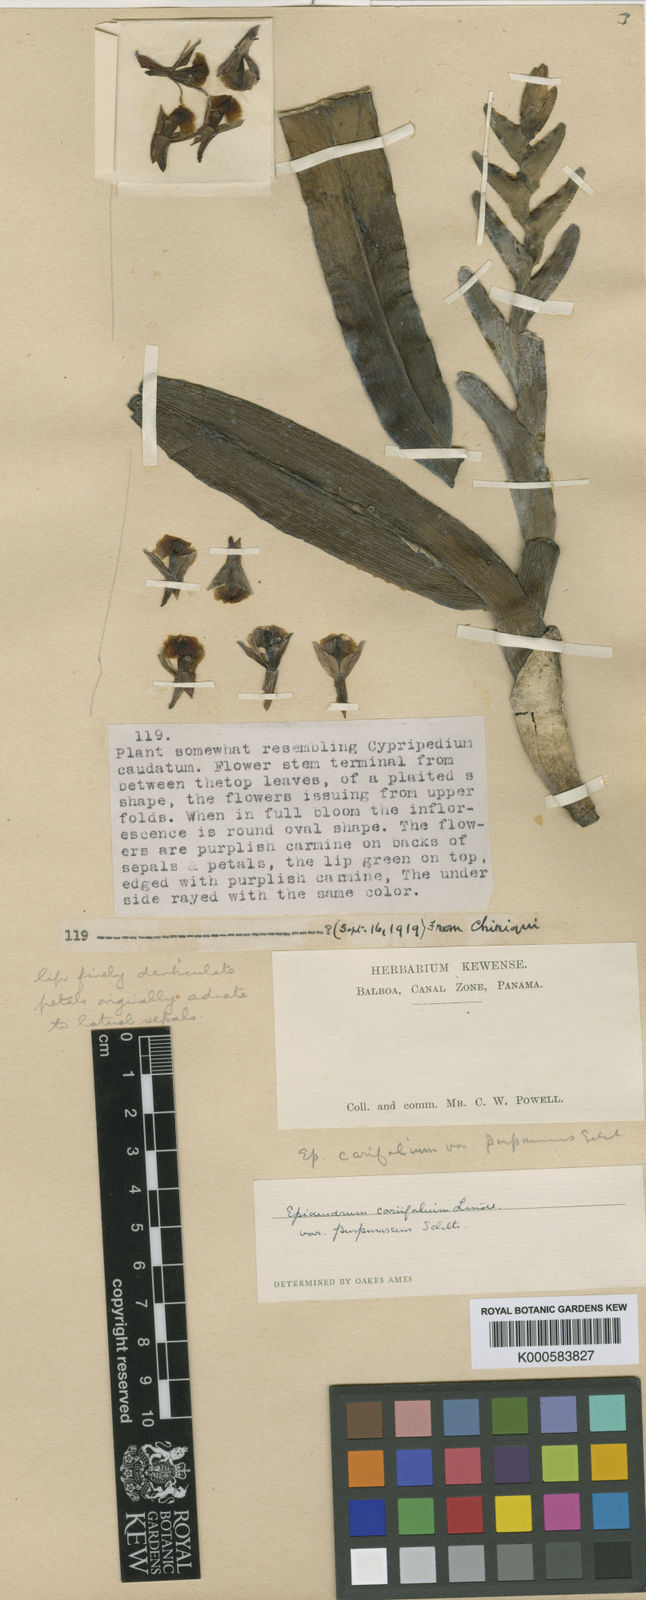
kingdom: Plantae
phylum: Tracheophyta
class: Liliopsida
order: Asparagales
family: Orchidaceae
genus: Epidendrum
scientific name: Epidendrum allochronum
